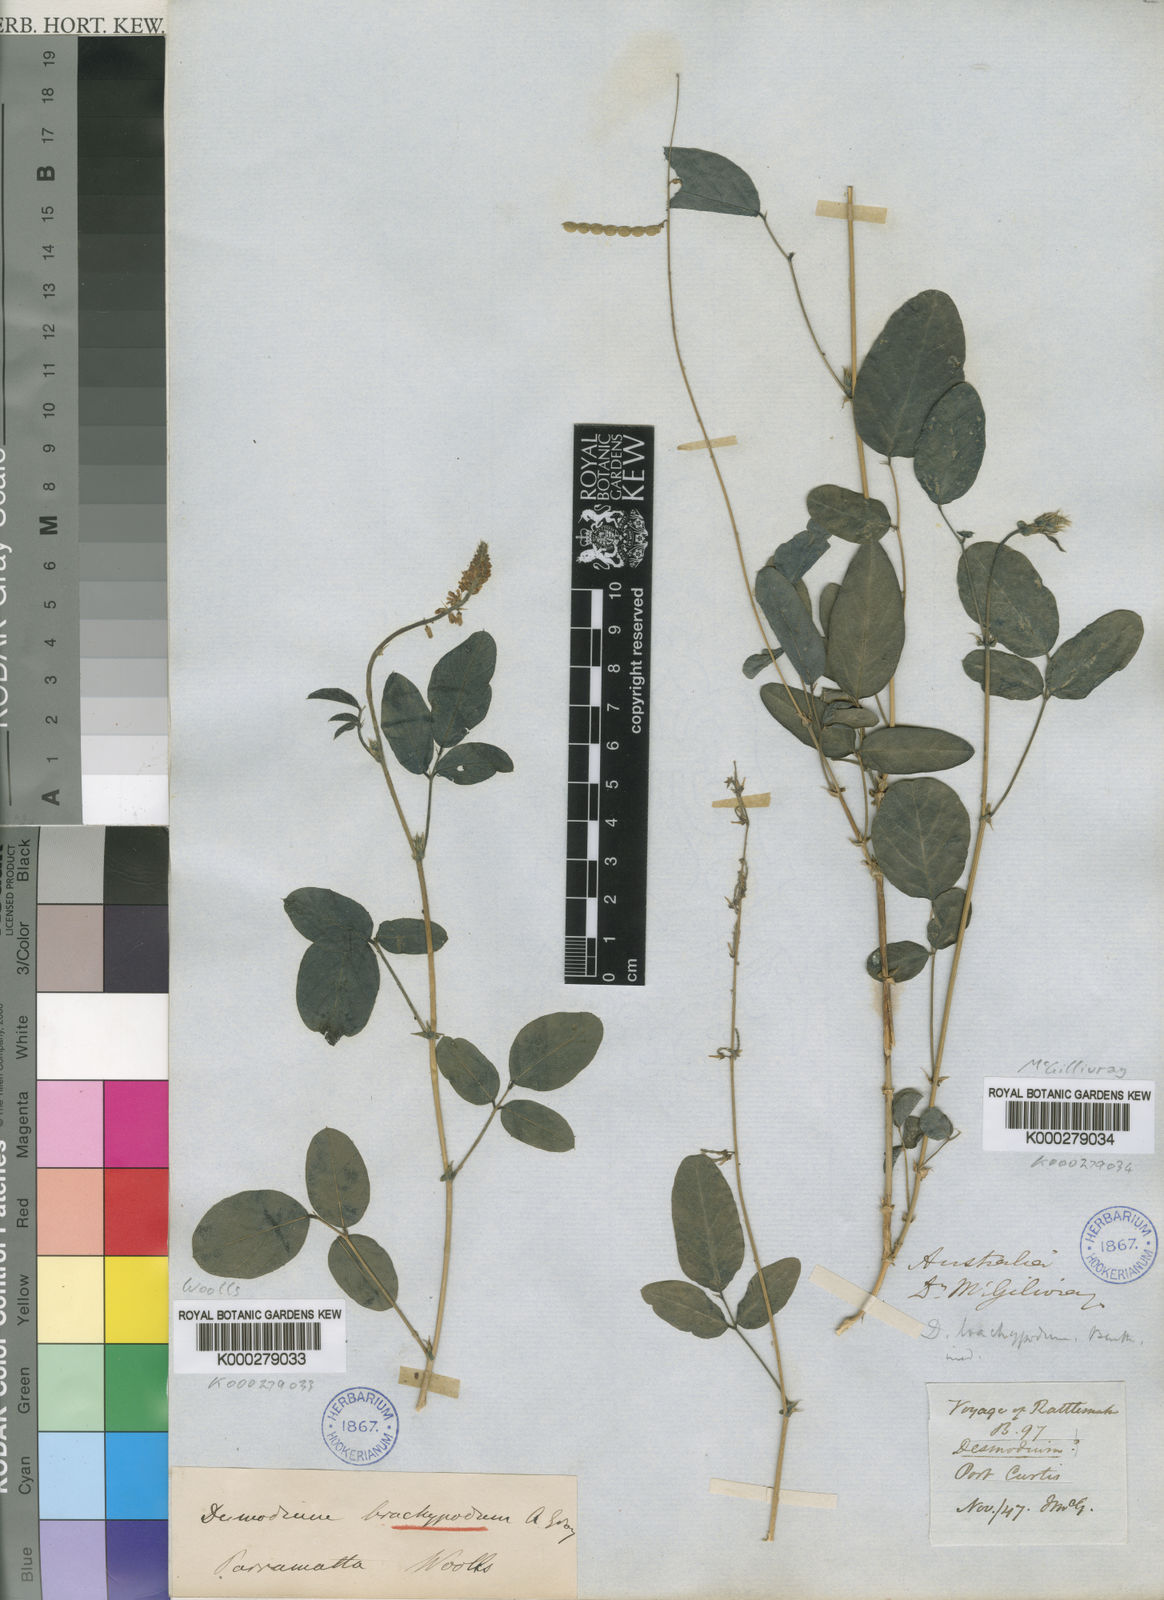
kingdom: Plantae
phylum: Tracheophyta
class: Magnoliopsida
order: Fabales
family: Fabaceae
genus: Oxytes
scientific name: Oxytes brachypoda
